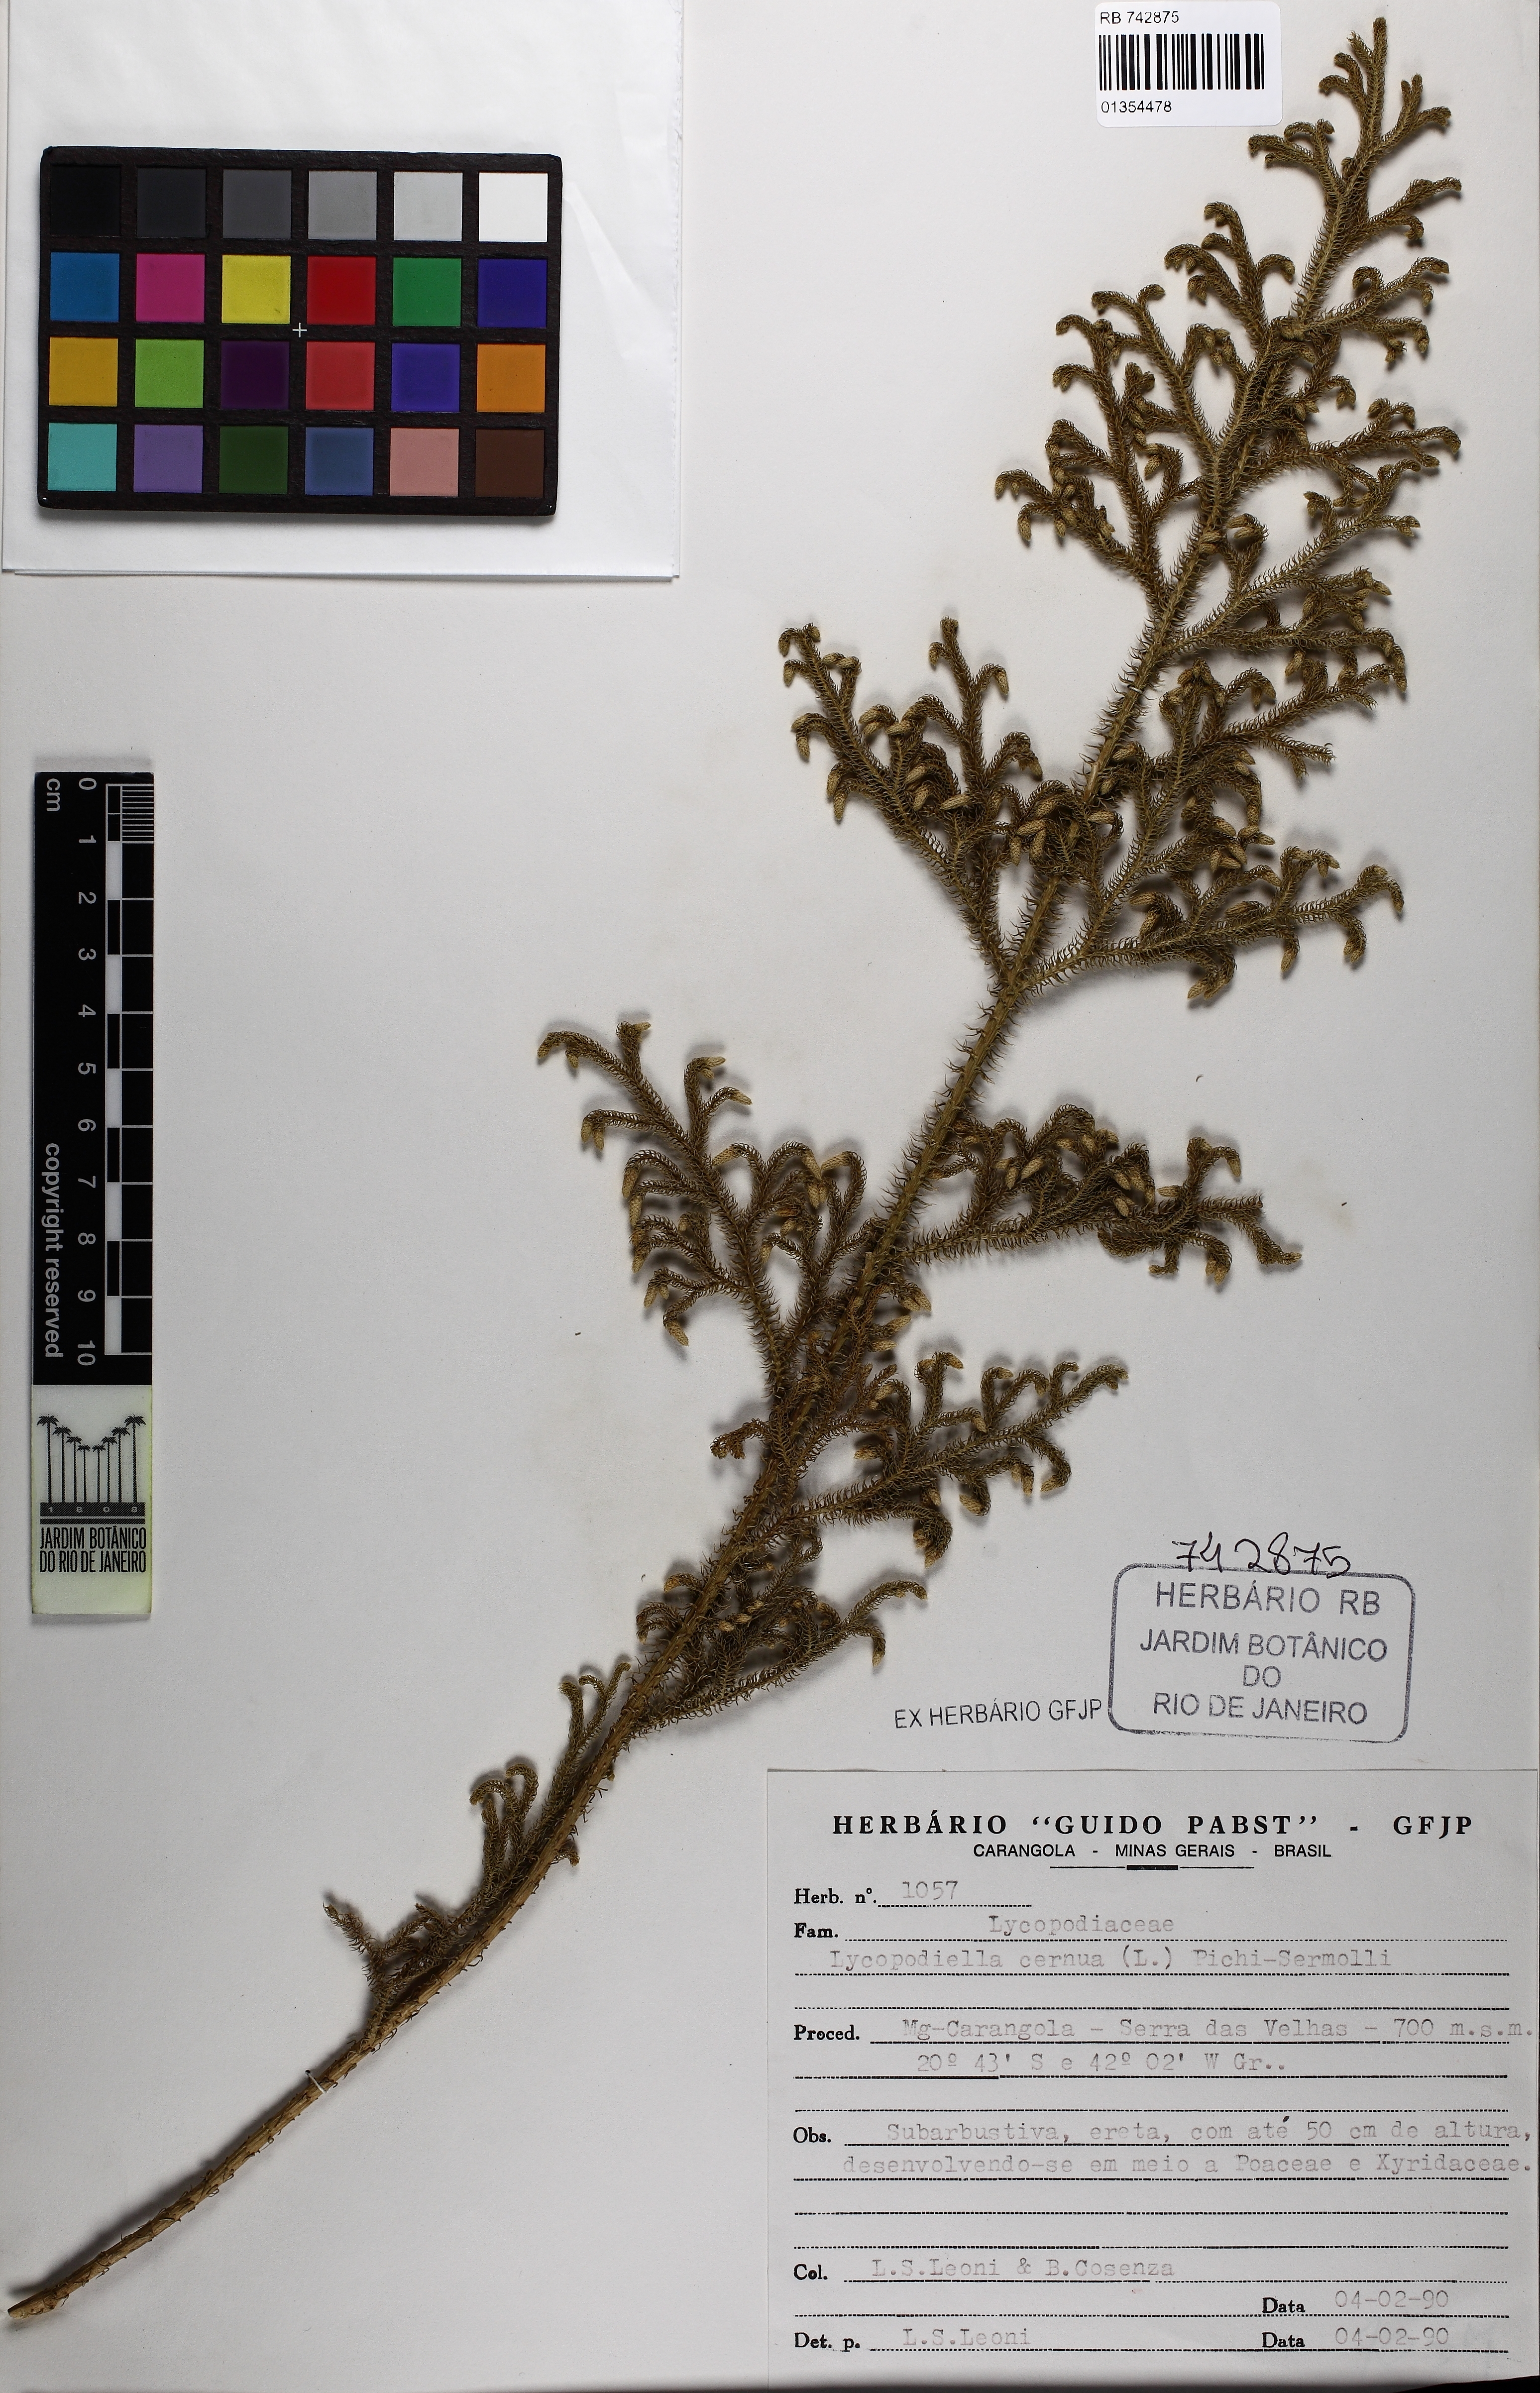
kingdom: Plantae
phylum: Tracheophyta
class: Lycopodiopsida
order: Lycopodiales
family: Lycopodiaceae
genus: Palhinhaea
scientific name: Palhinhaea cernua
